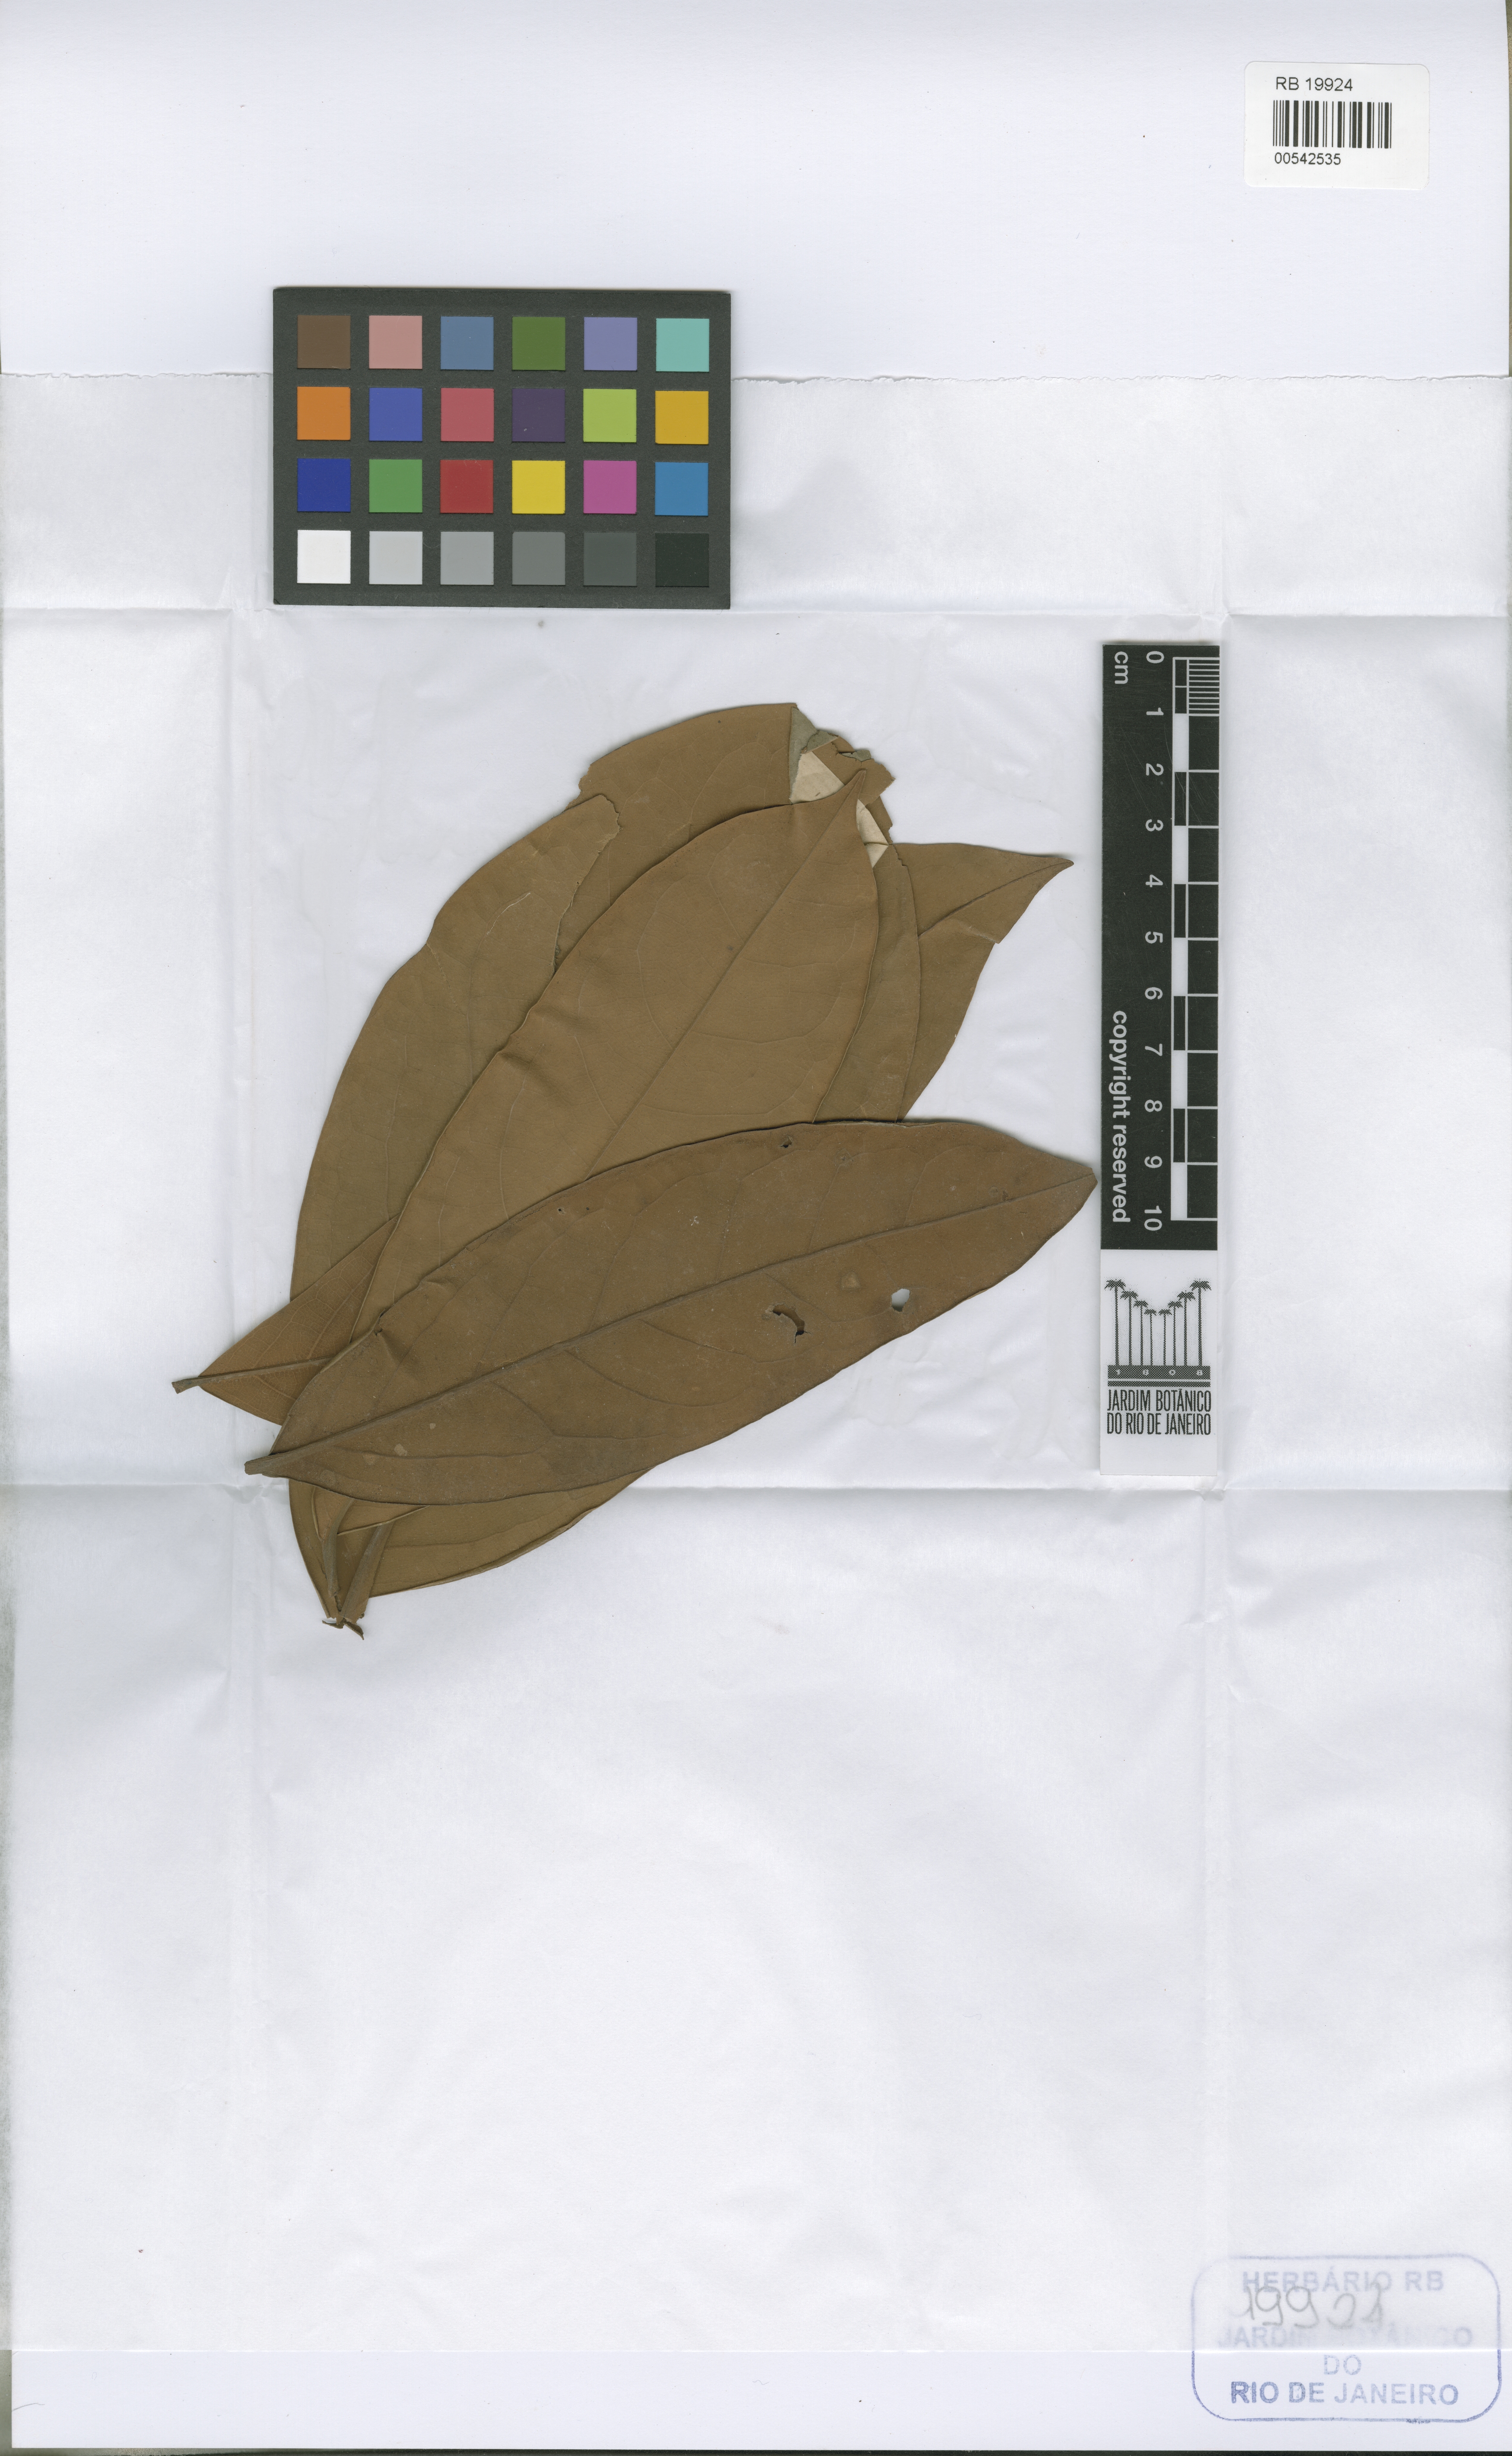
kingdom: Plantae
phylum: Tracheophyta
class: Magnoliopsida
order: Laurales
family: Lauraceae
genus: Aniba
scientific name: Aniba rosaeodora
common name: Brazilian rosewood
